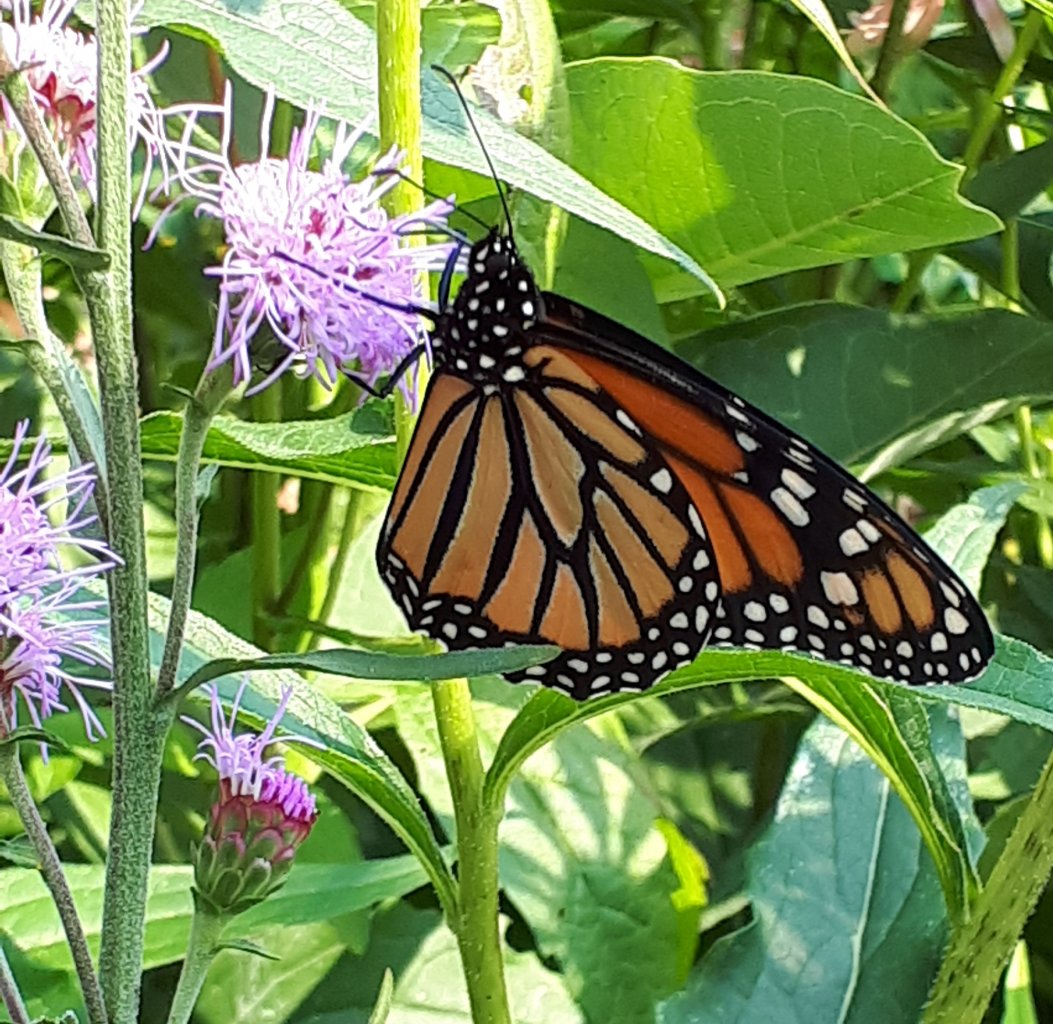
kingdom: Animalia
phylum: Arthropoda
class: Insecta
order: Lepidoptera
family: Nymphalidae
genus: Danaus
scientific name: Danaus plexippus
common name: Monarch
